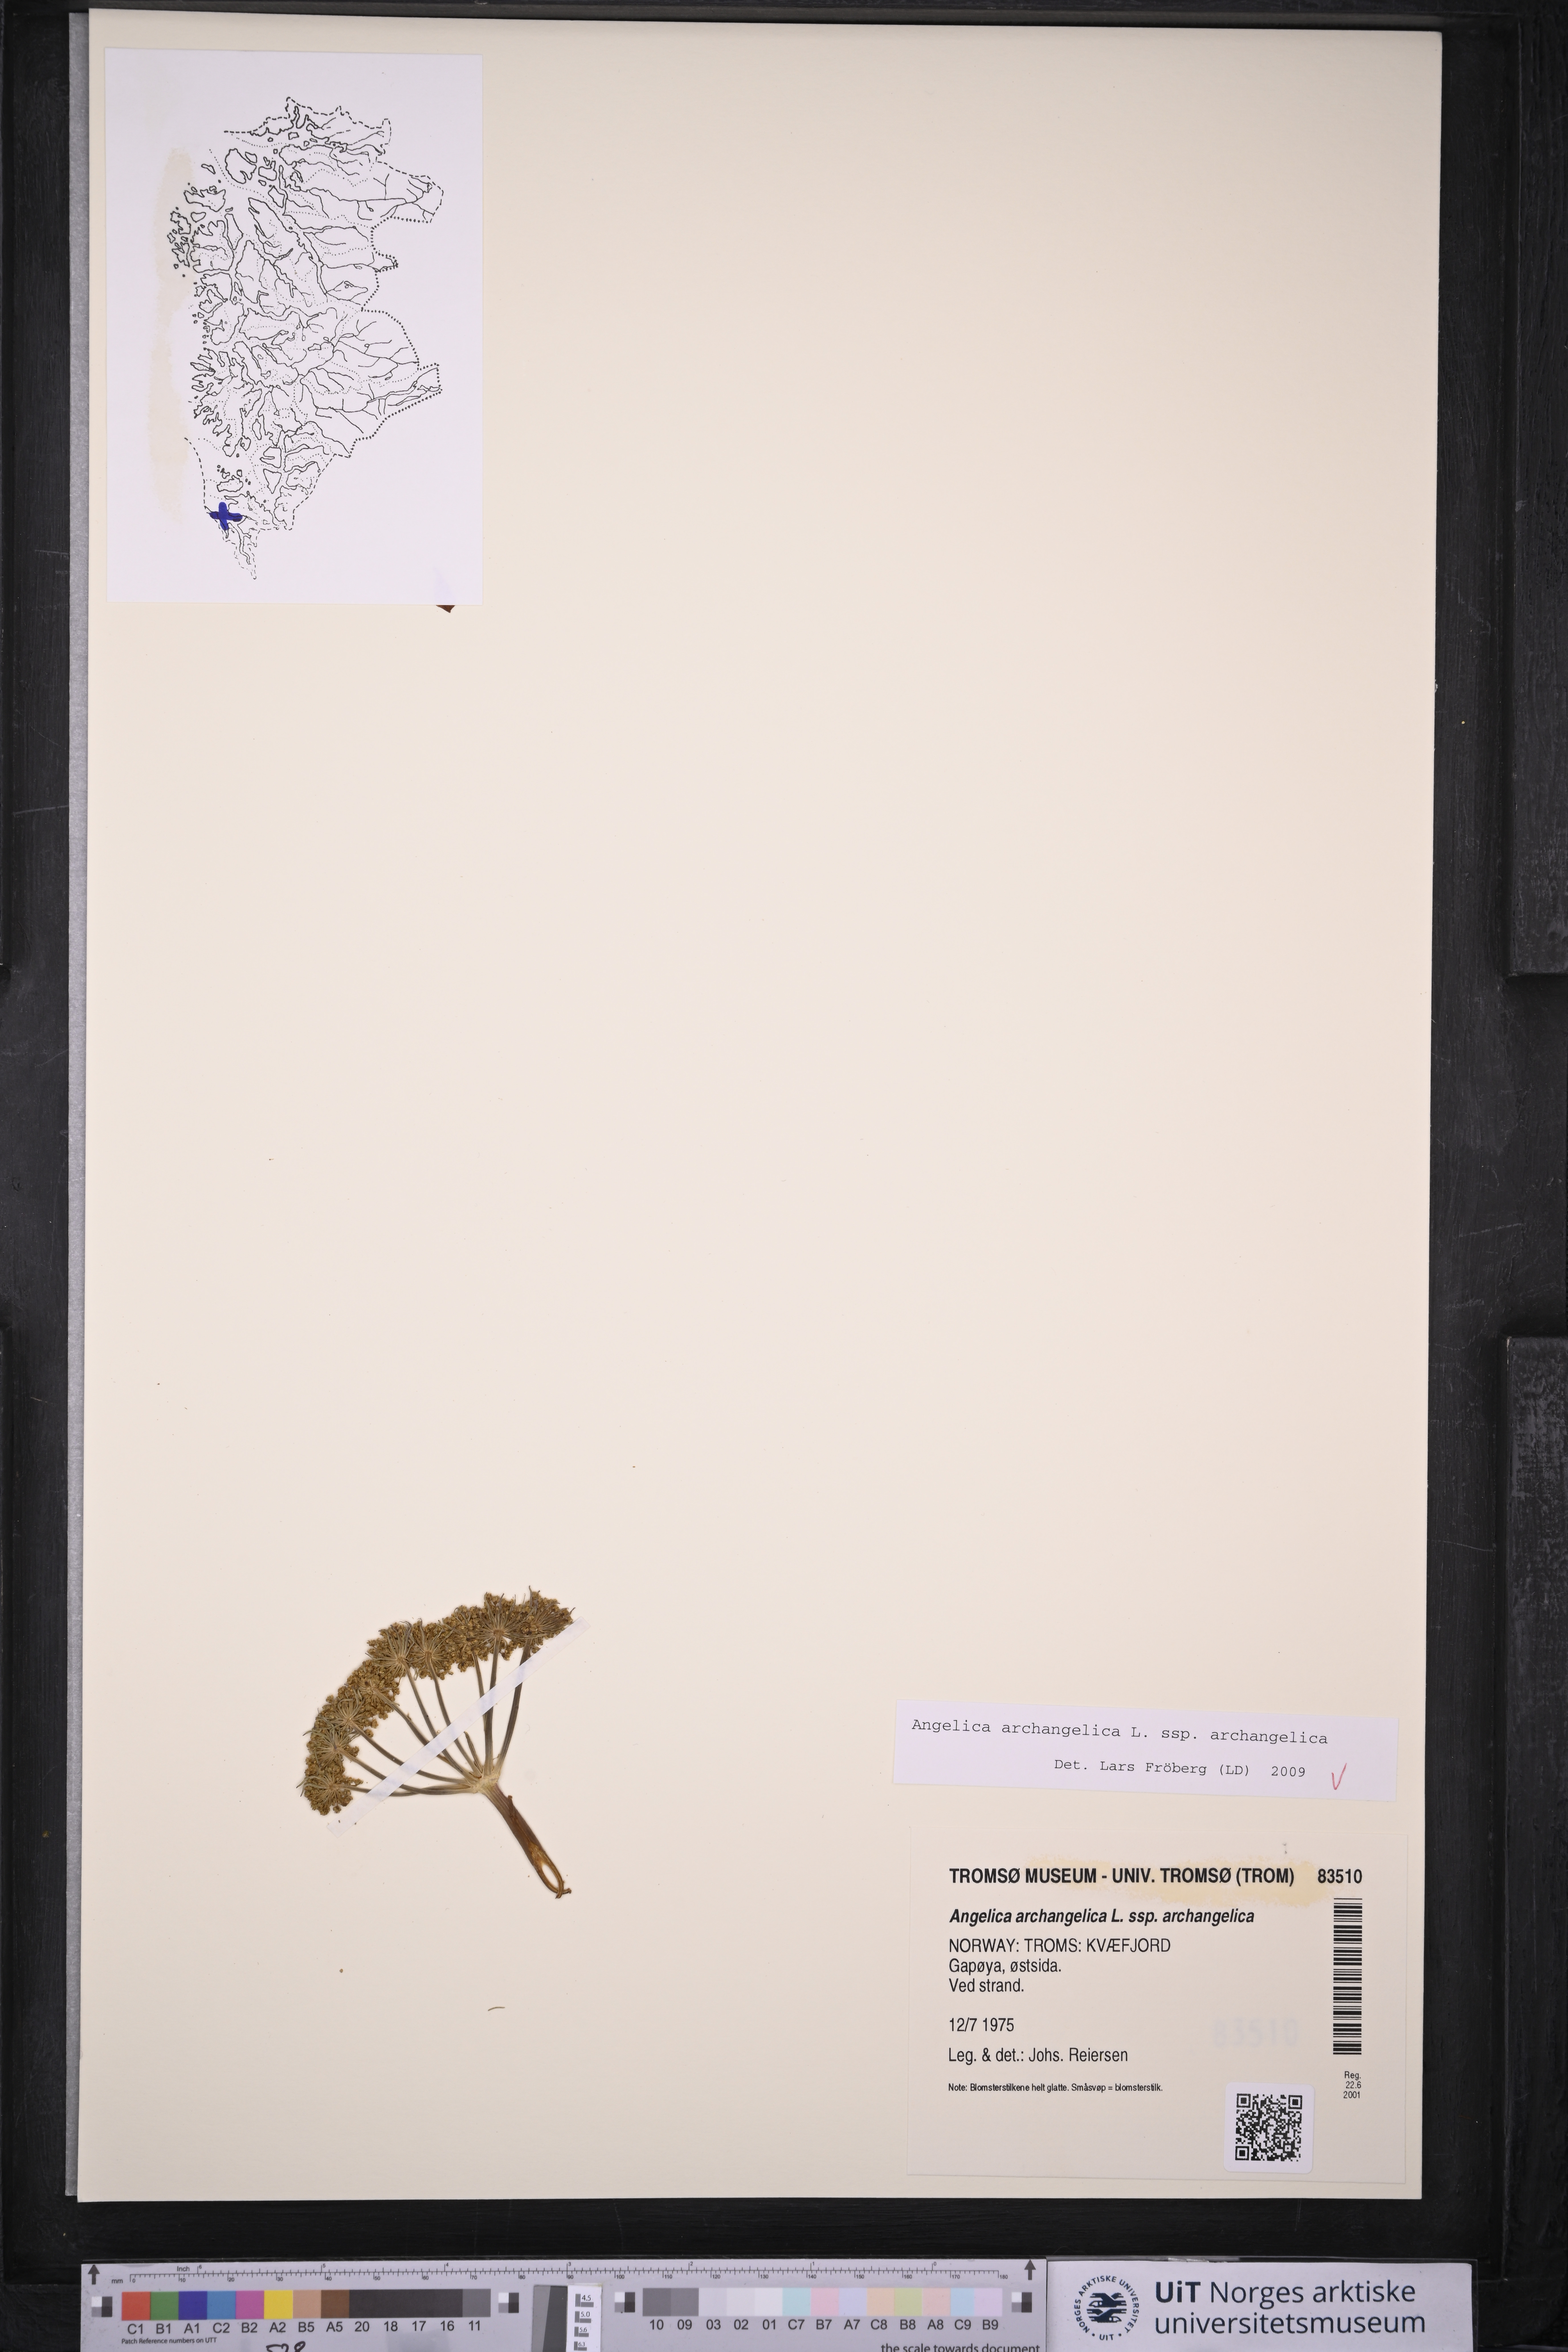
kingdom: Plantae
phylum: Tracheophyta
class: Magnoliopsida
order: Apiales
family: Apiaceae
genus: Angelica
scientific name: Angelica archangelica
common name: Garden angelica
